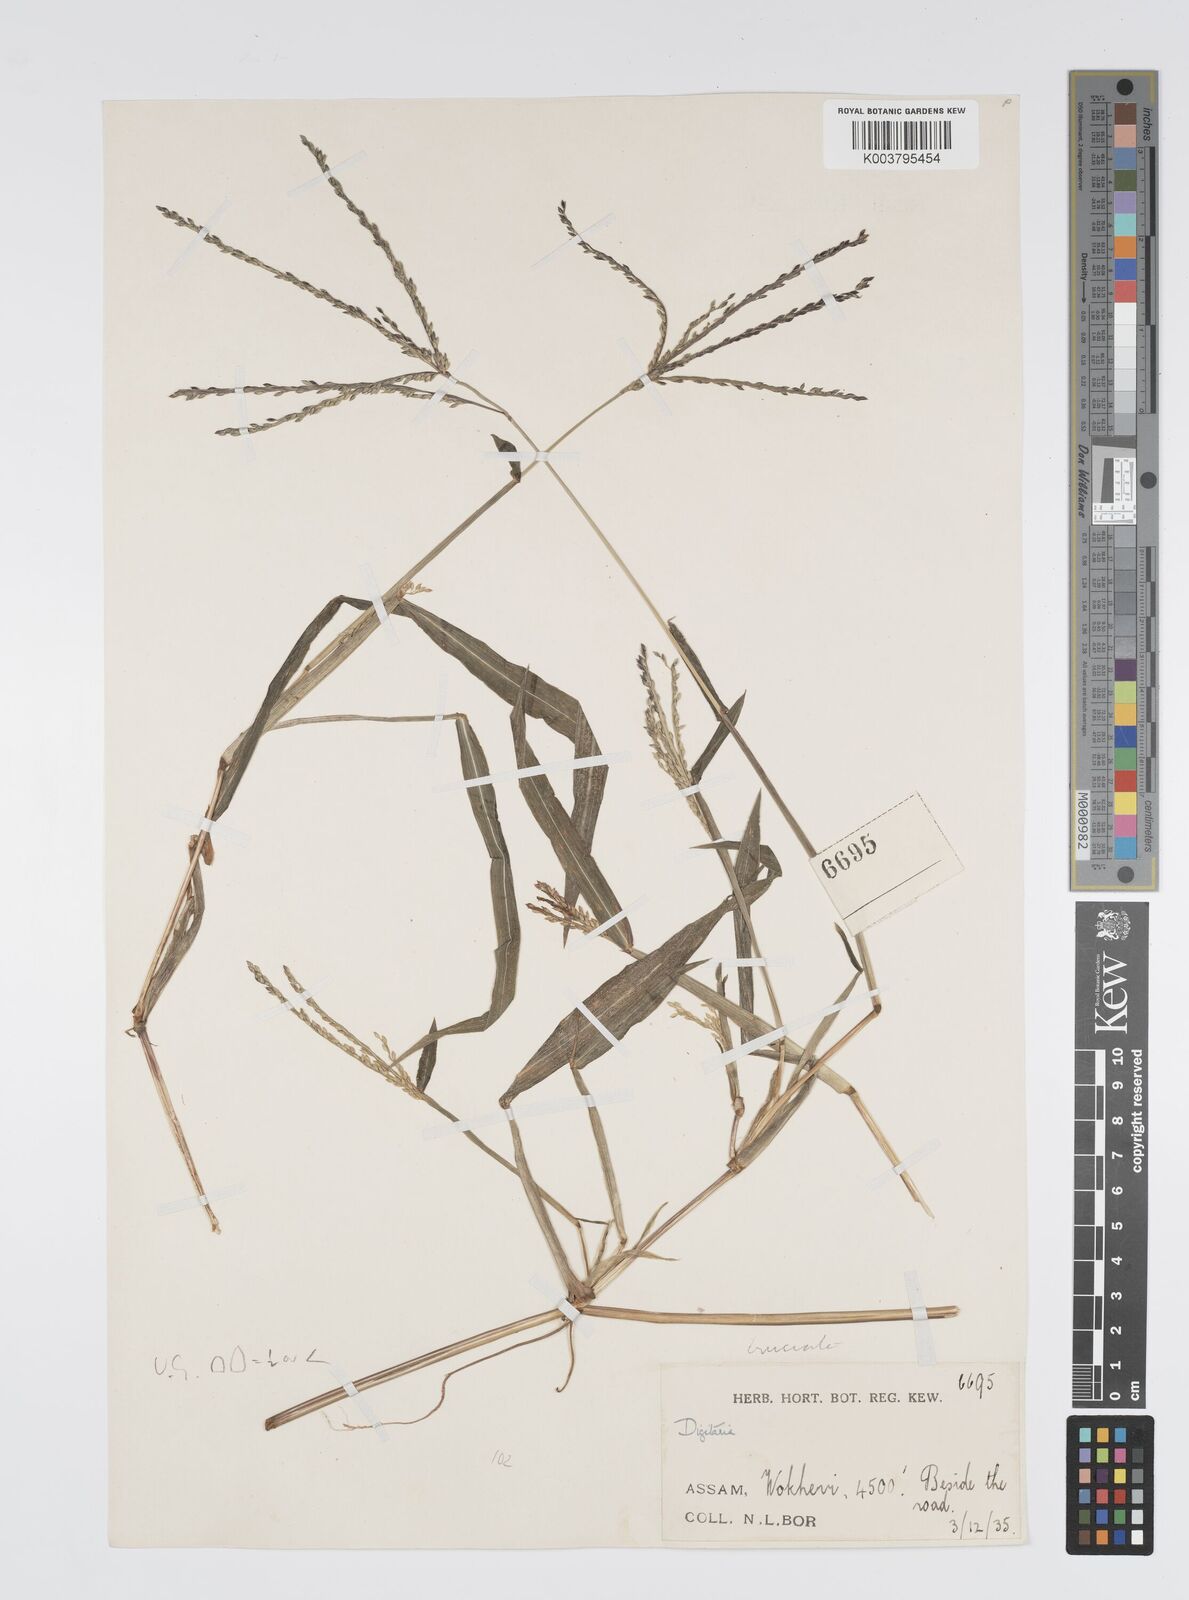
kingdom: Plantae
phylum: Tracheophyta
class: Liliopsida
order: Poales
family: Poaceae
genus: Digitaria
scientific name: Digitaria cruciata
